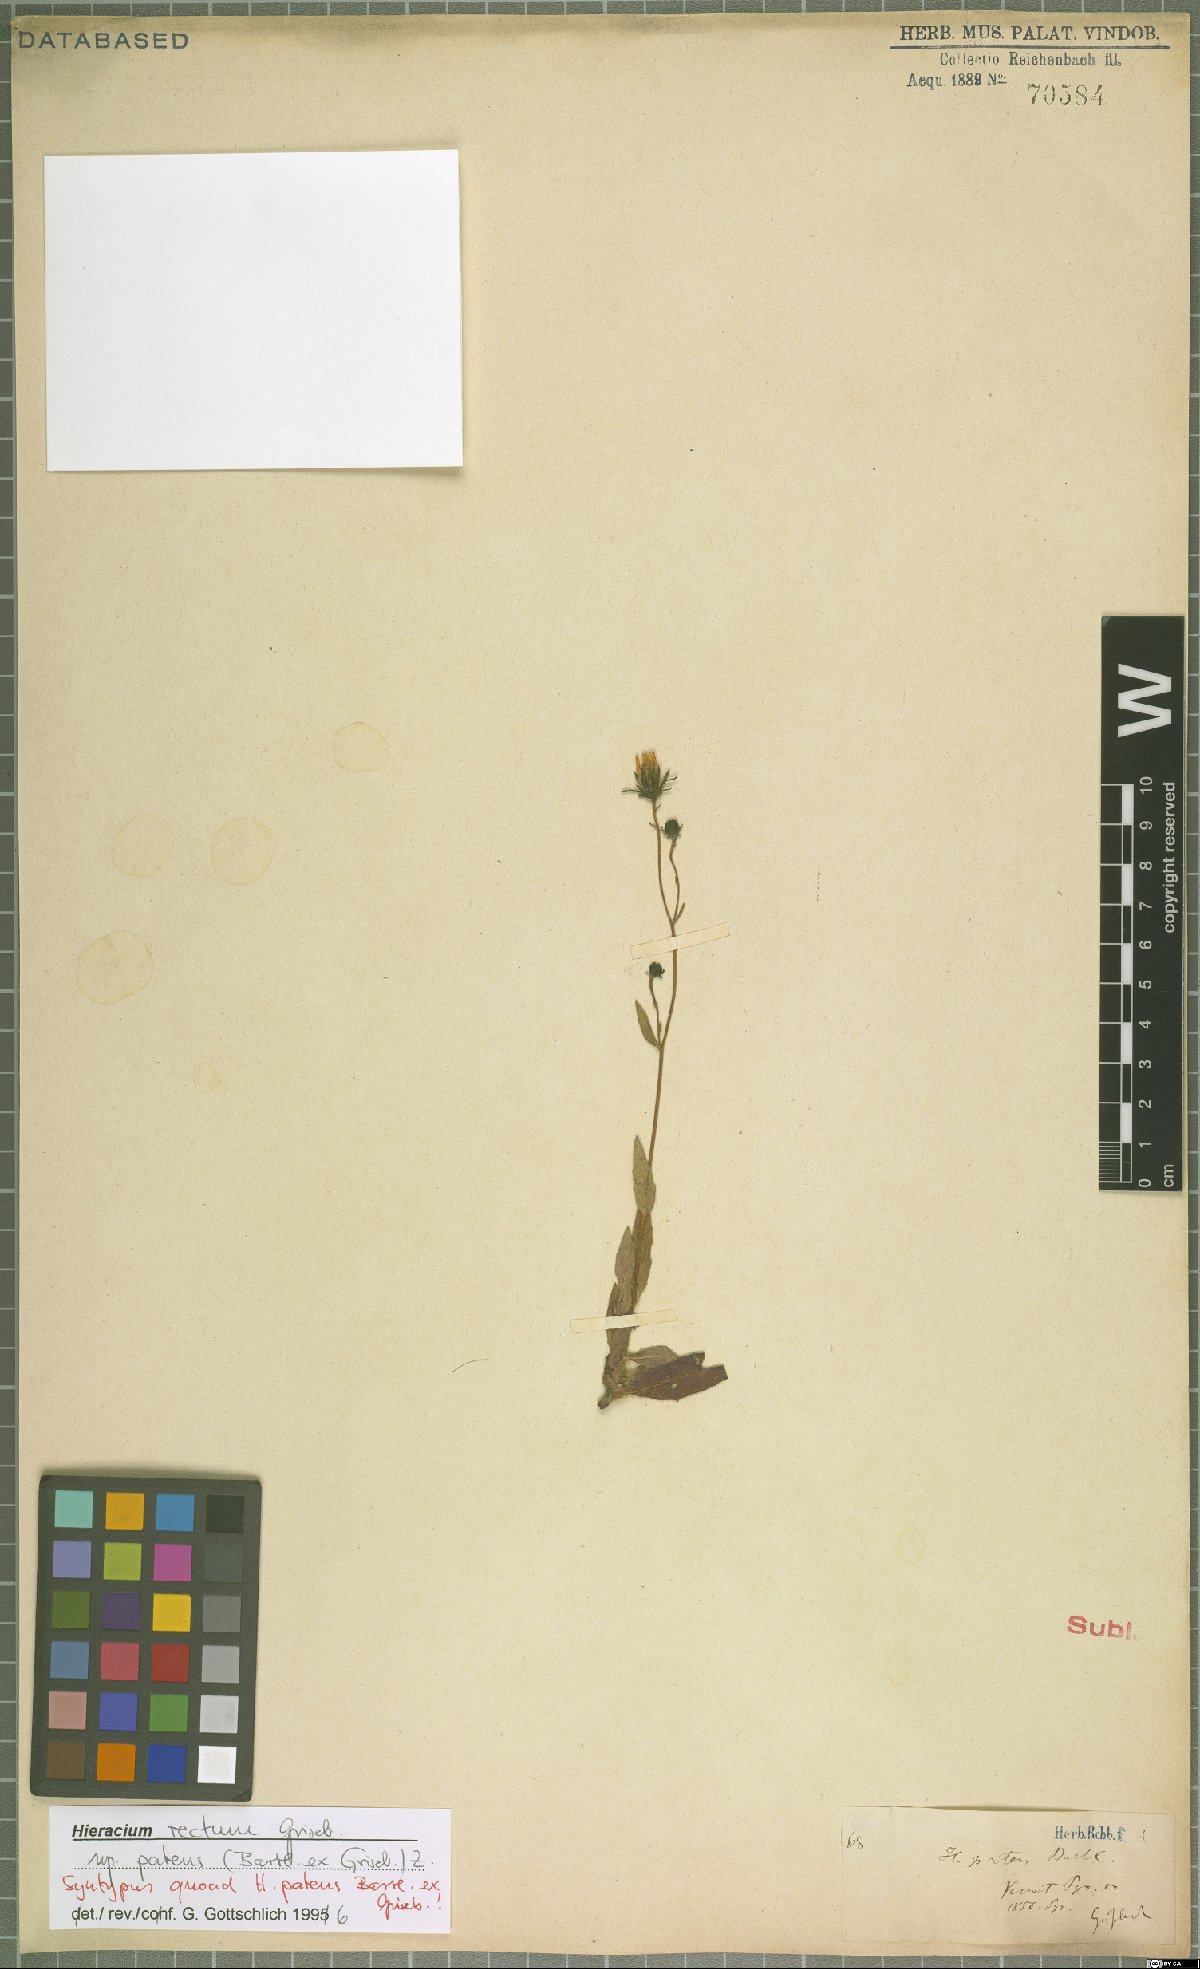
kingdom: Plantae
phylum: Tracheophyta
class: Magnoliopsida
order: Asterales
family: Asteraceae
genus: Hieracium
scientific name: Hieracium patens
